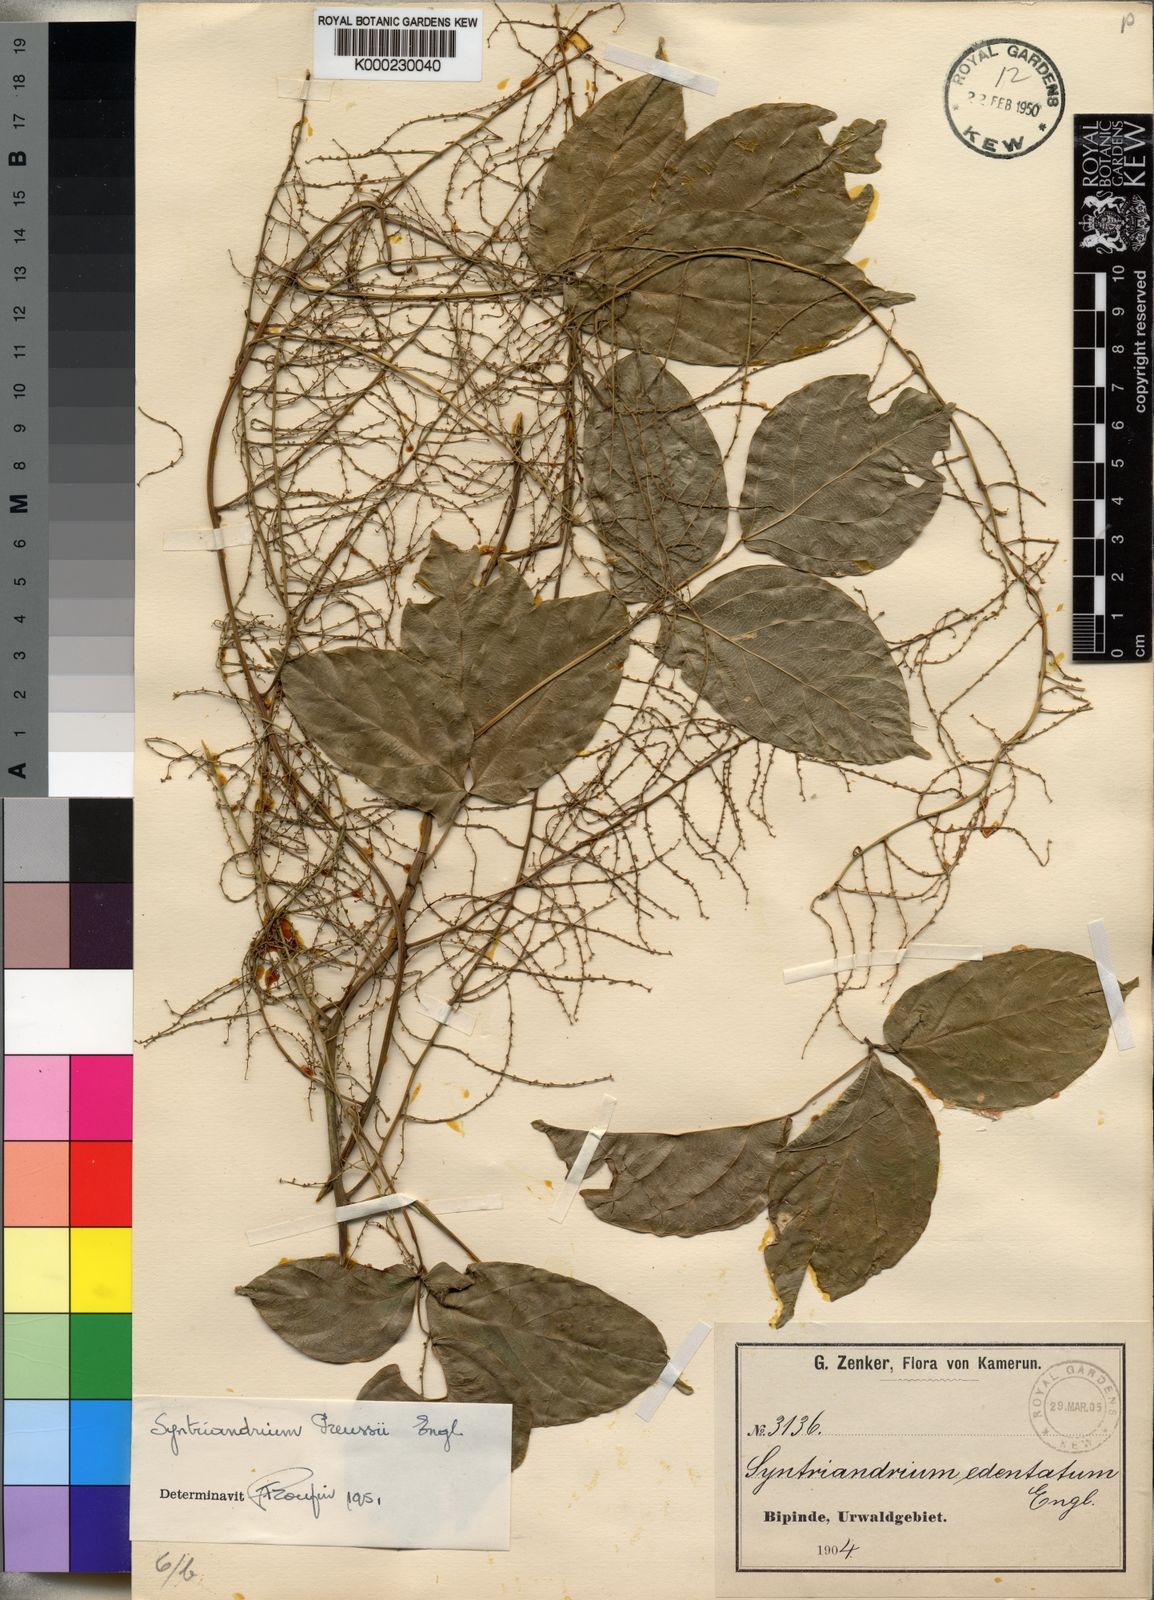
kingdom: Plantae
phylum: Tracheophyta
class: Magnoliopsida
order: Ranunculales
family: Menispermaceae
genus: Syntriandrium
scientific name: Syntriandrium preussii
